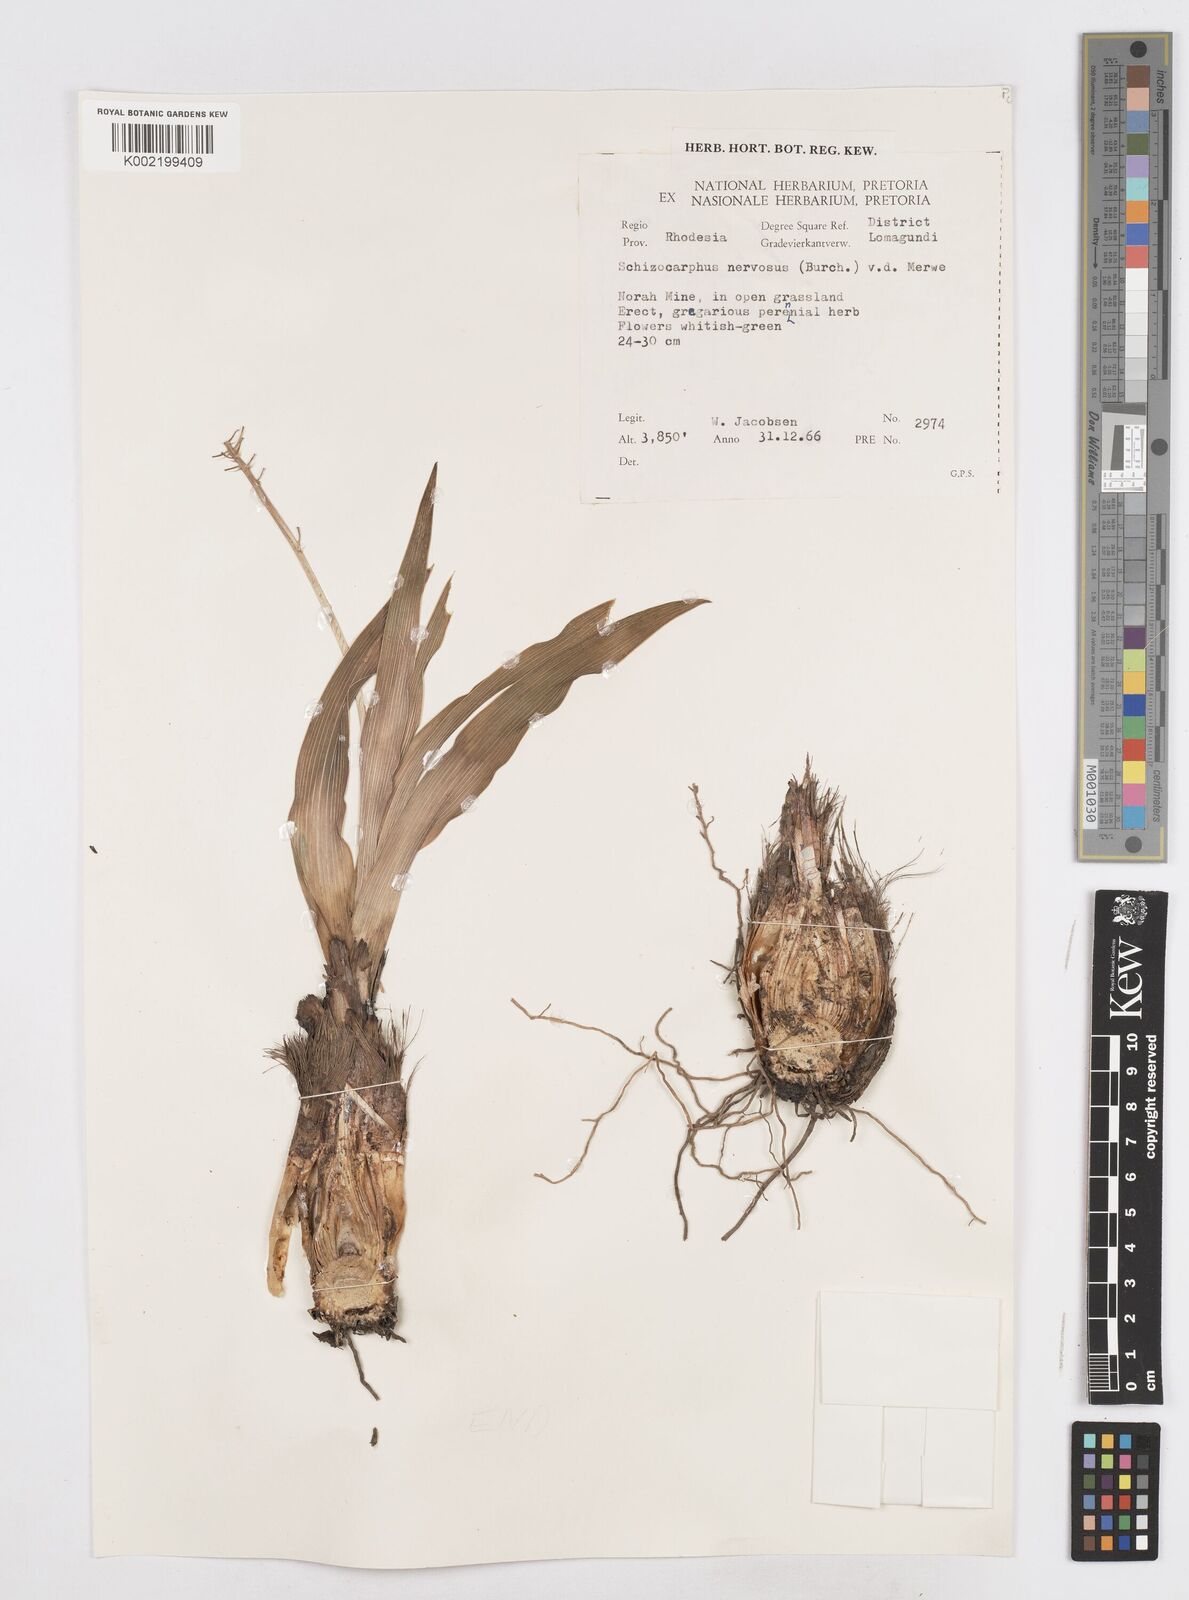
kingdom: Plantae
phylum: Tracheophyta
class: Liliopsida
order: Asparagales
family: Asparagaceae
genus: Schizocarphus
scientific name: Schizocarphus nervosus
